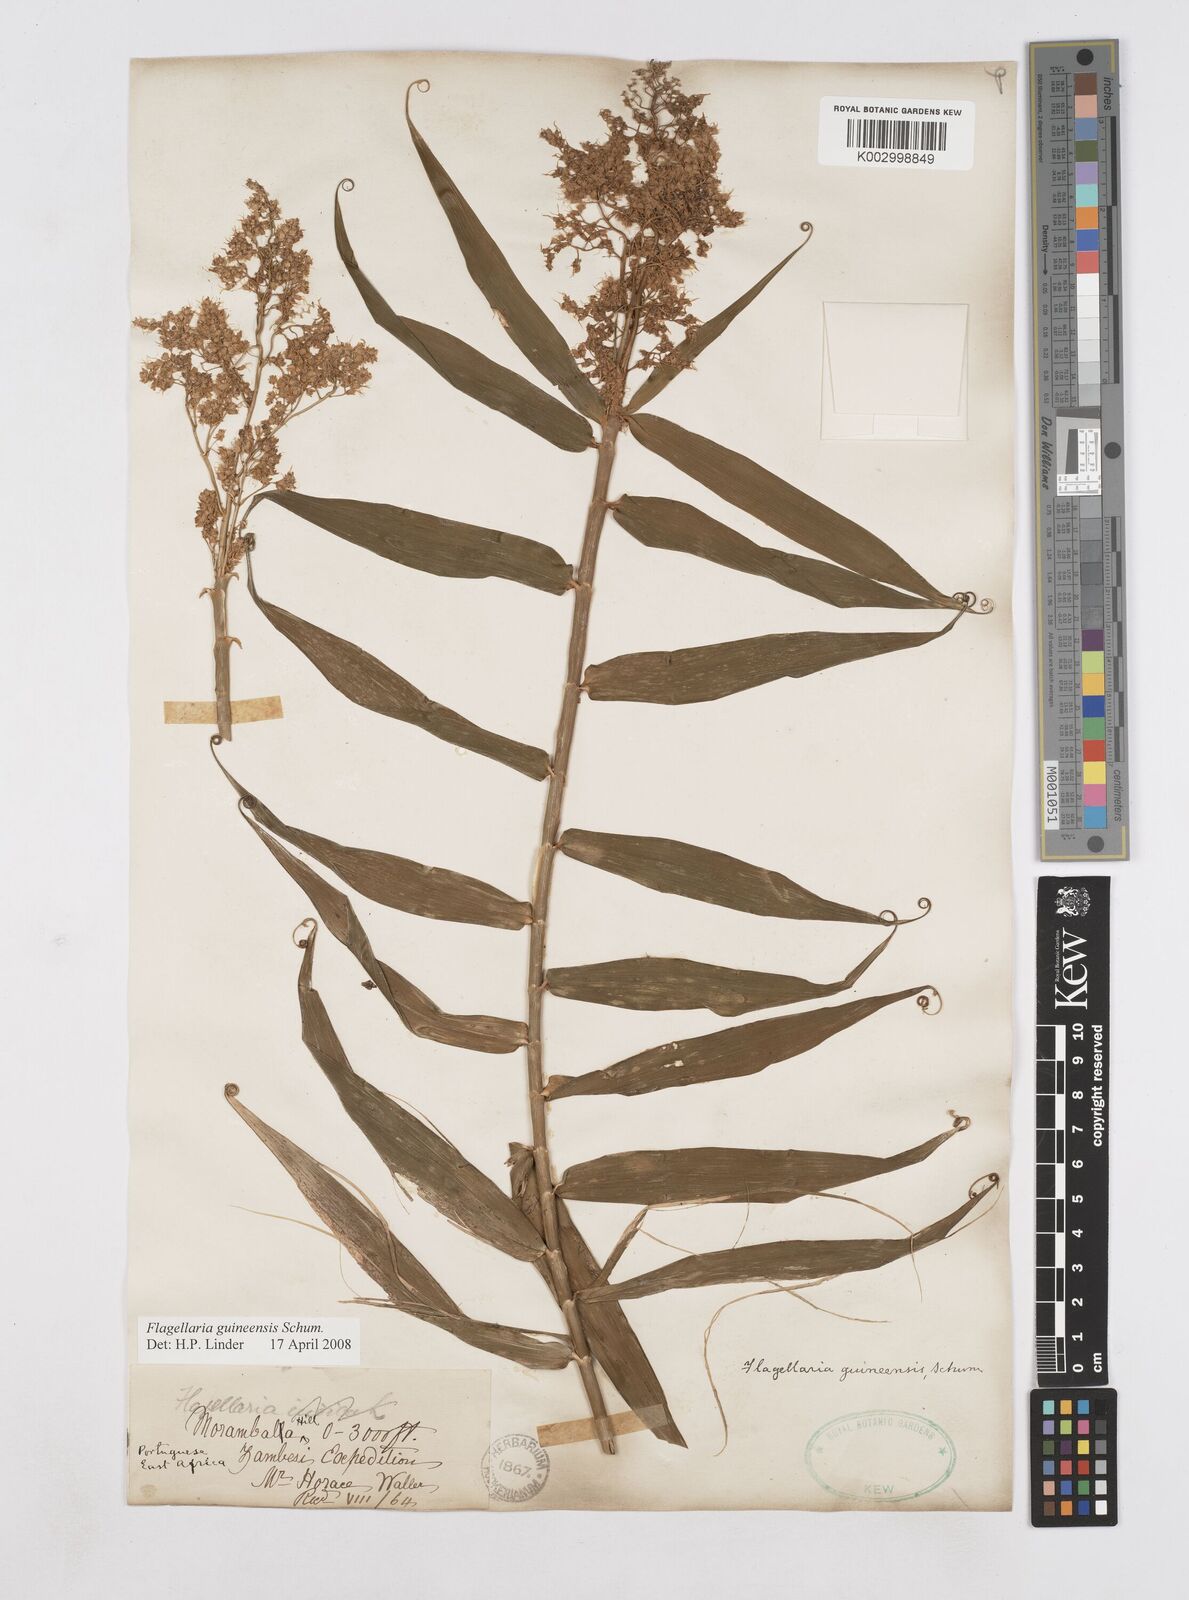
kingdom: Plantae
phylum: Tracheophyta
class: Liliopsida
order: Poales
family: Flagellariaceae
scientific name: Flagellariaceae
